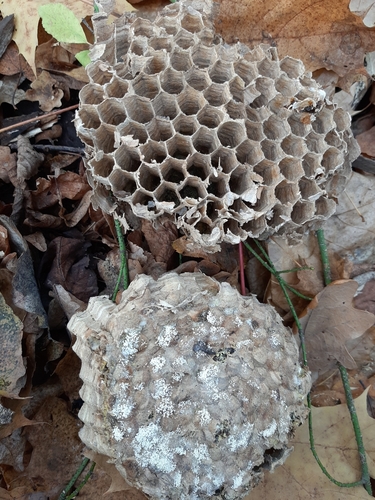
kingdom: Fungi
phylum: Ascomycota
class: Eurotiomycetes
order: Eurotiales
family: Aspergillaceae
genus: Aspergillus
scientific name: Aspergillus flavus
